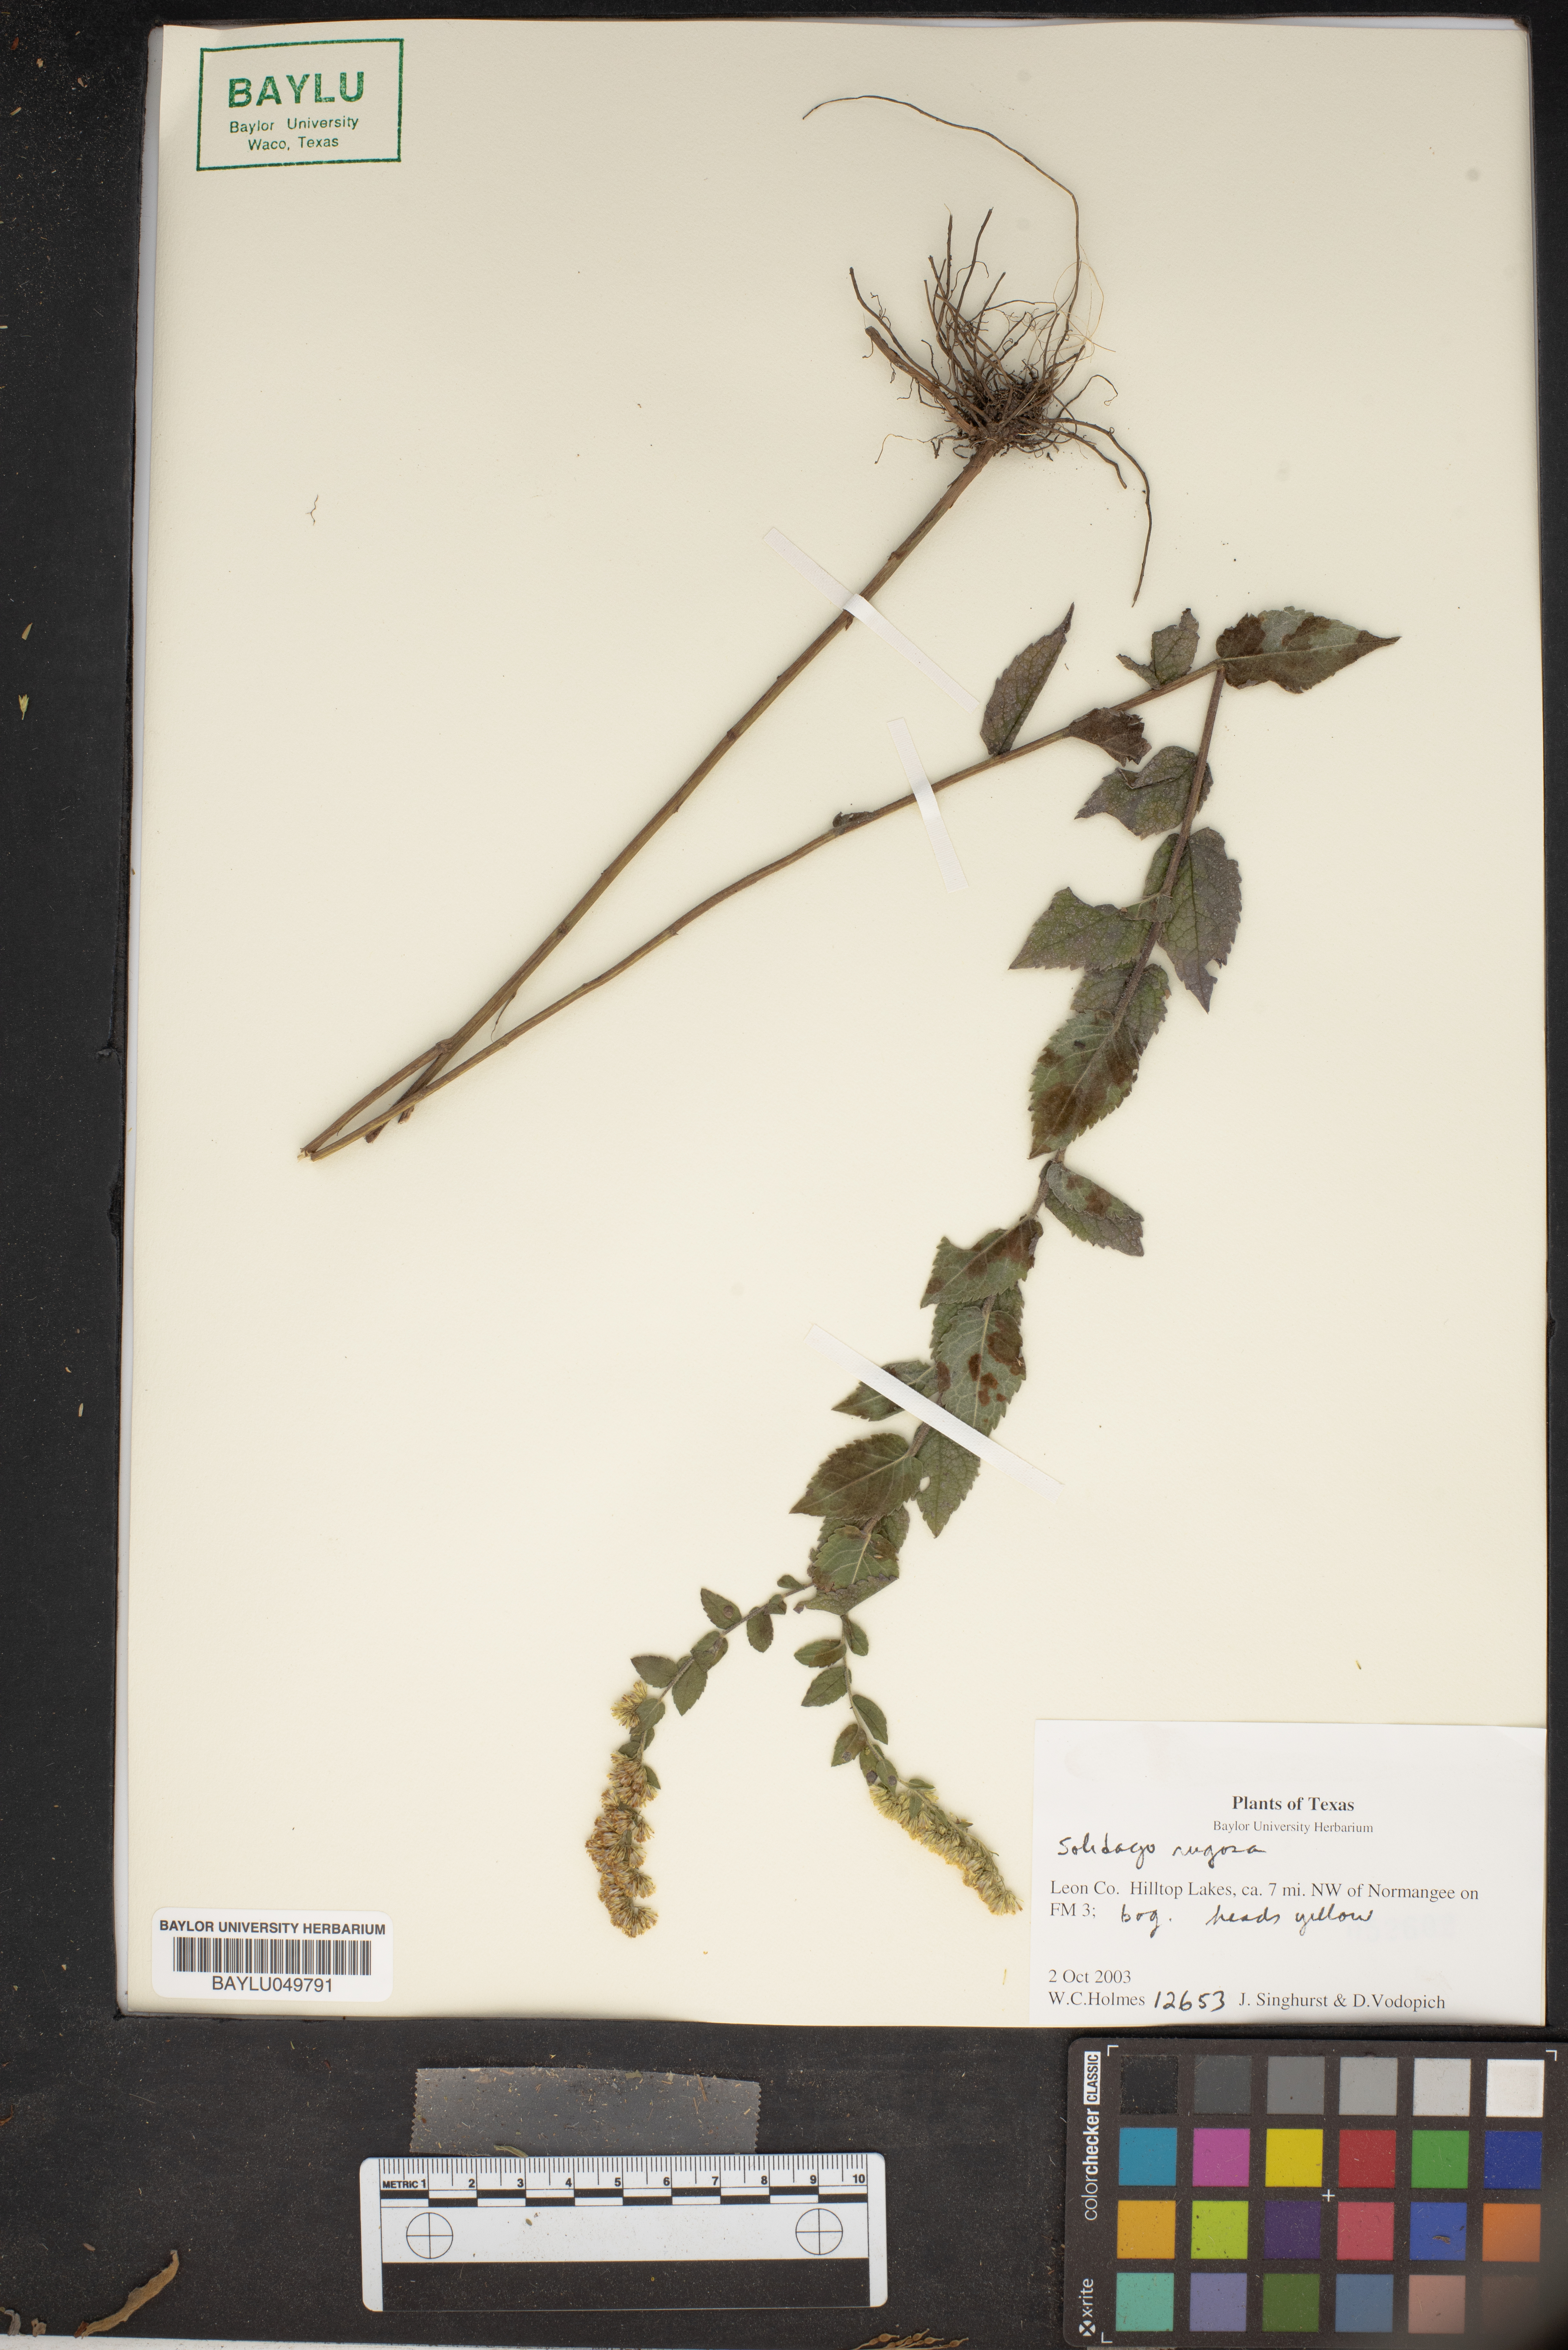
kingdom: Plantae
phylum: Tracheophyta
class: Magnoliopsida
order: Asterales
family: Asteraceae
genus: Solidago
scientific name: Solidago
